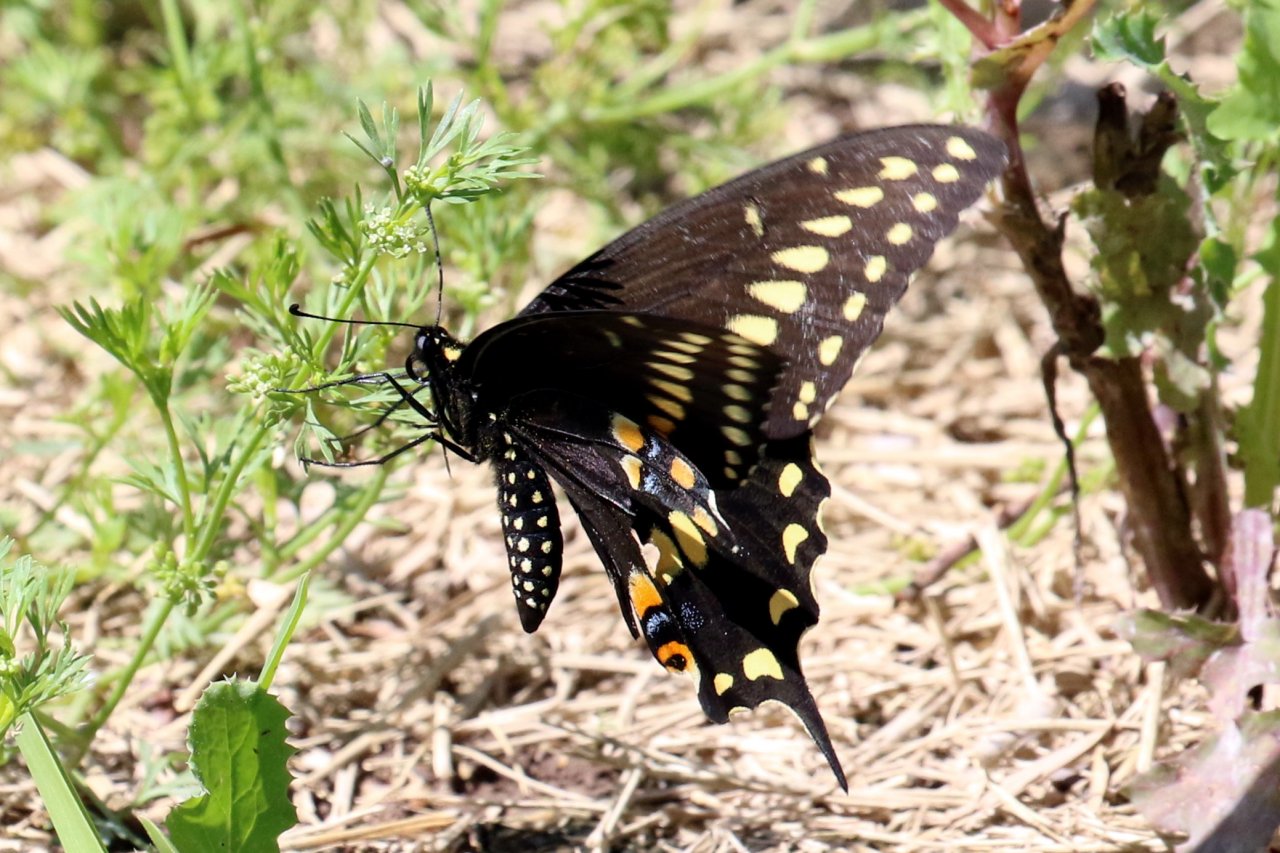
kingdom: Animalia
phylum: Arthropoda
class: Insecta
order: Lepidoptera
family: Papilionidae
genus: Papilio
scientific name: Papilio polyxenes
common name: Black Swallowtail
